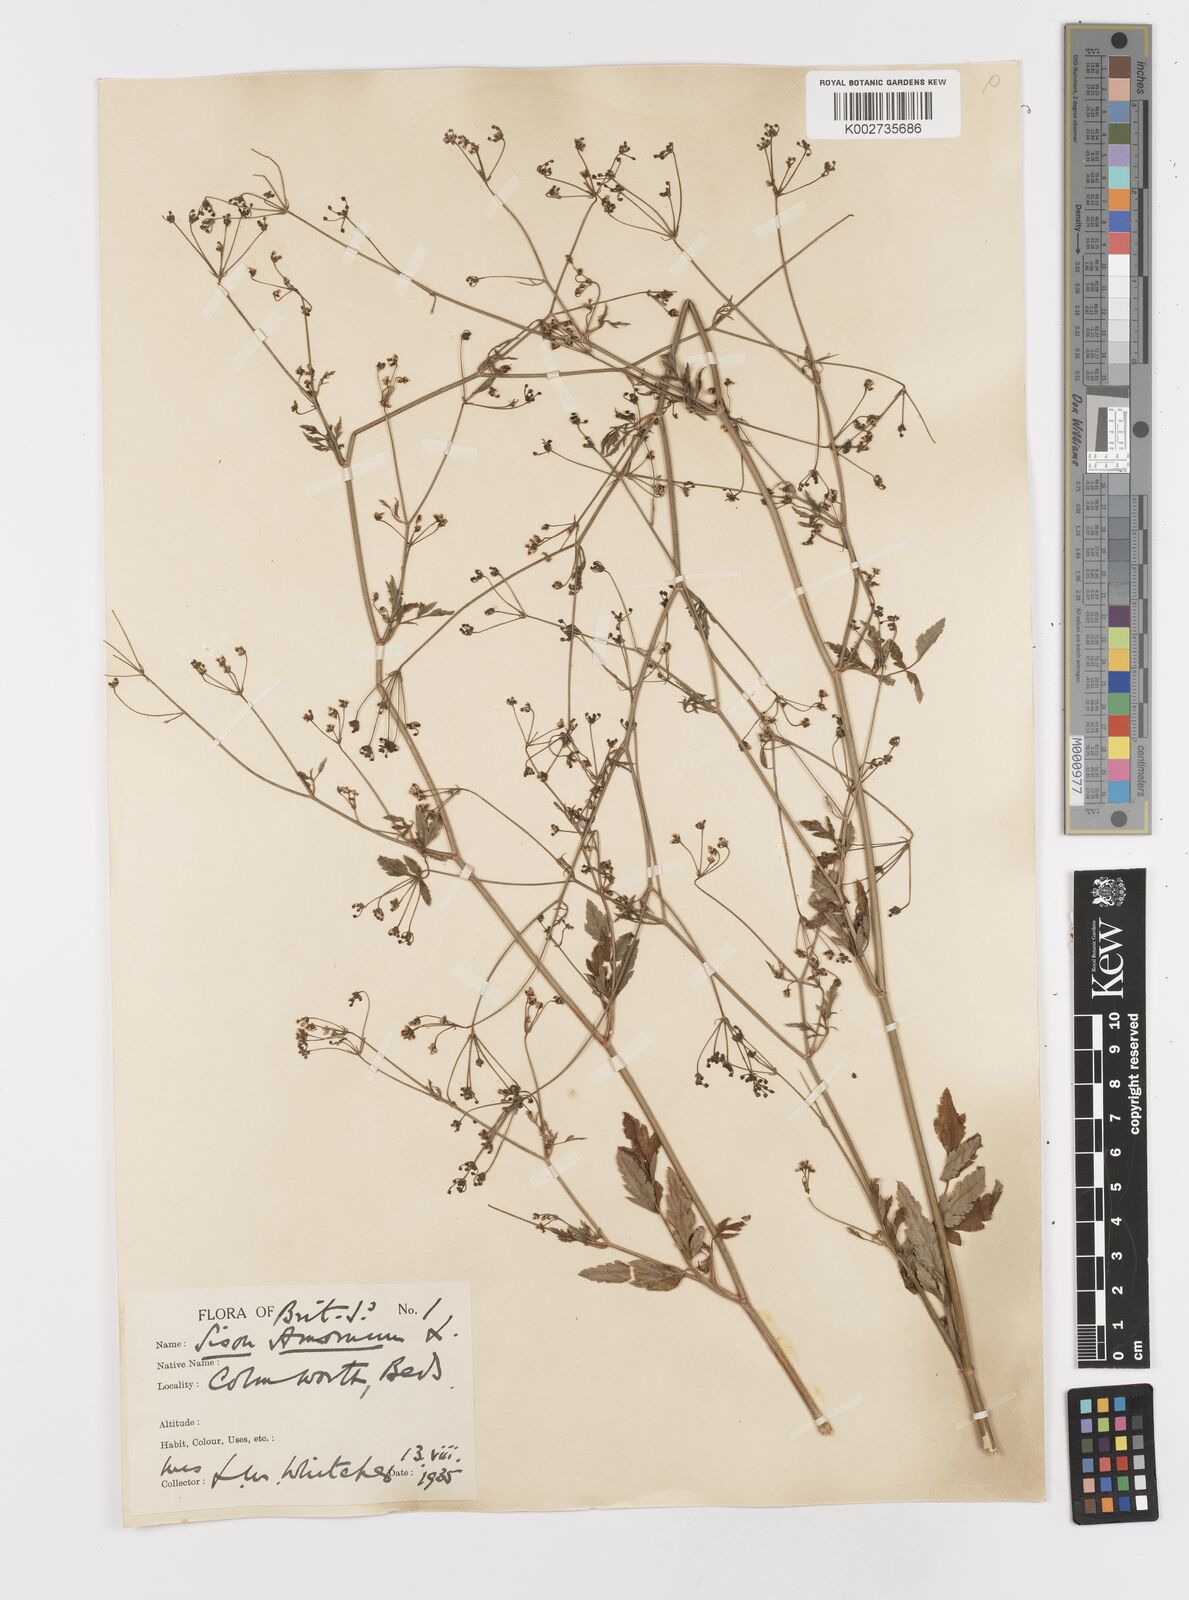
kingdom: Plantae
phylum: Tracheophyta
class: Magnoliopsida
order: Apiales
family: Apiaceae
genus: Sison
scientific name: Sison amomum
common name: Stone-parsley
